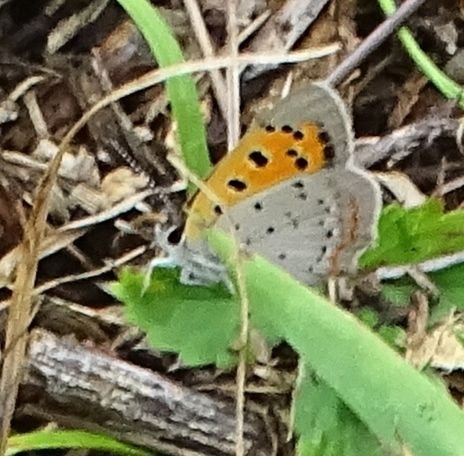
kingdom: Animalia
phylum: Arthropoda
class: Insecta
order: Lepidoptera
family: Lycaenidae
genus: Lycaena
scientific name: Lycaena phlaeas
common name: American Copper
